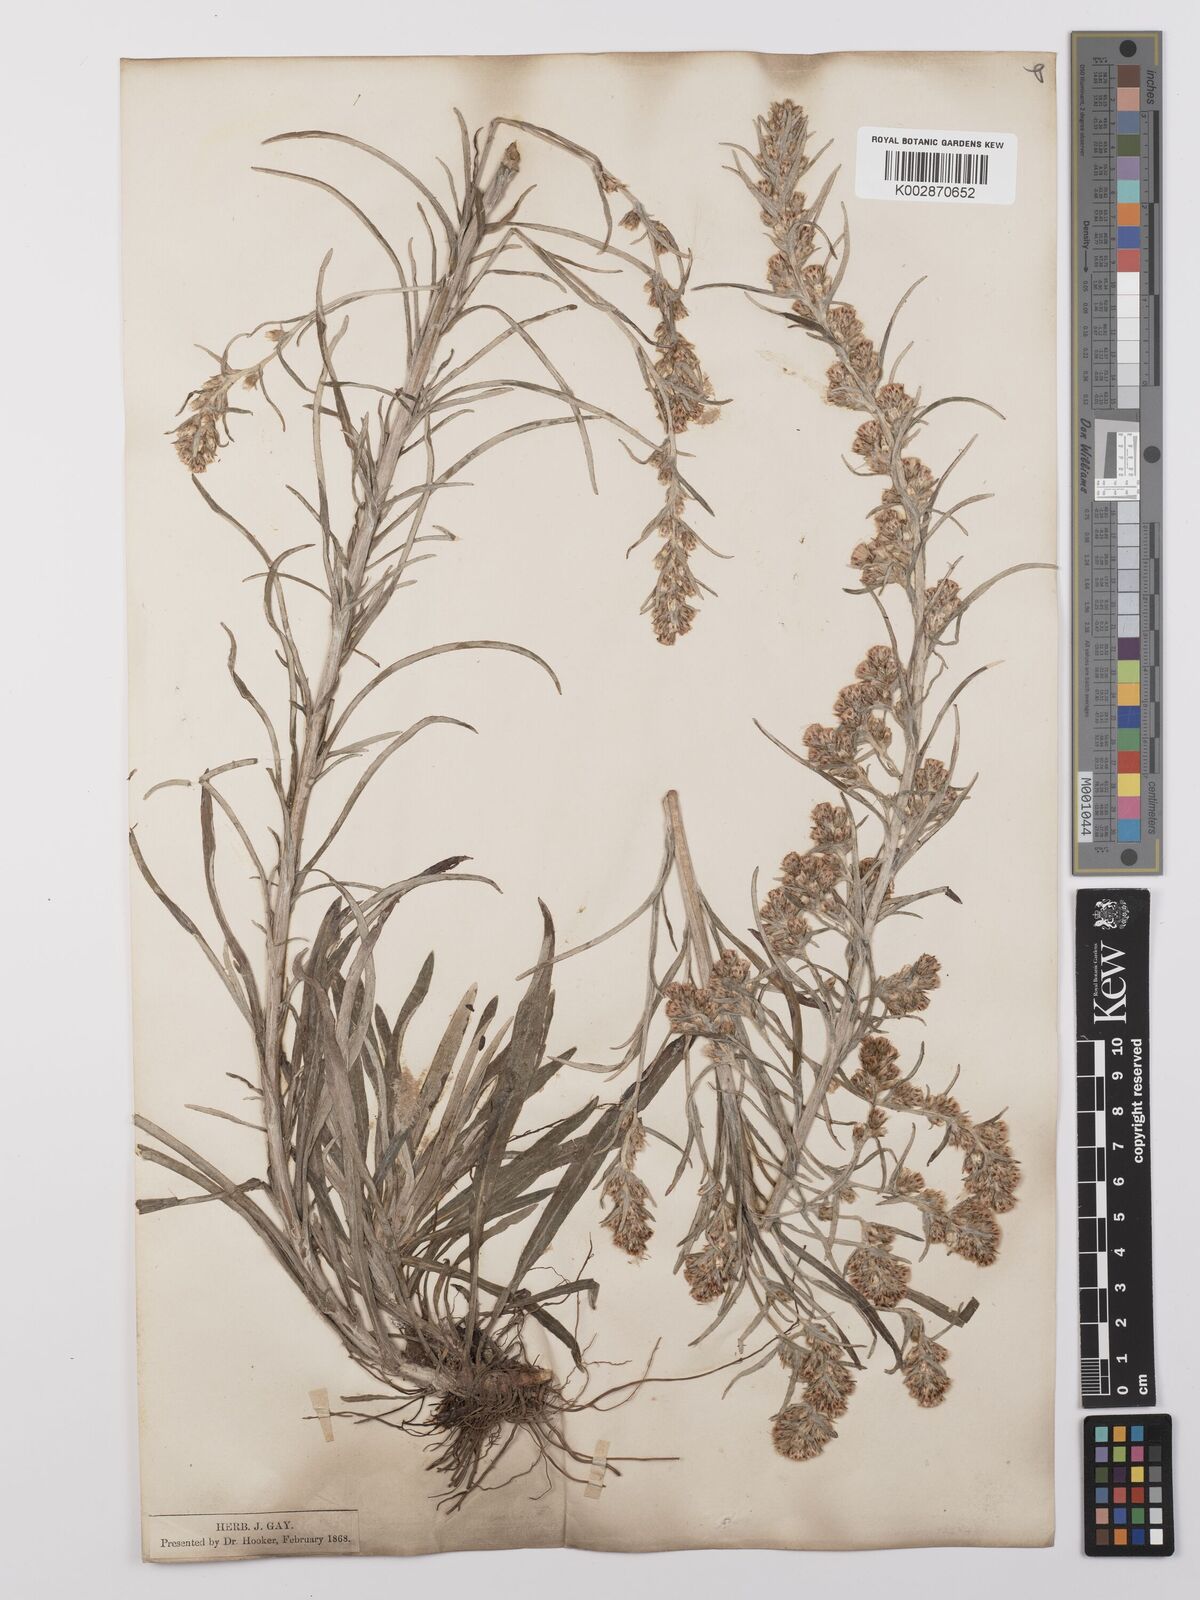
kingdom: Plantae
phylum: Tracheophyta
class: Magnoliopsida
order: Asterales
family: Asteraceae
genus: Omalotheca
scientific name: Omalotheca sylvatica
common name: Heath cudweed
